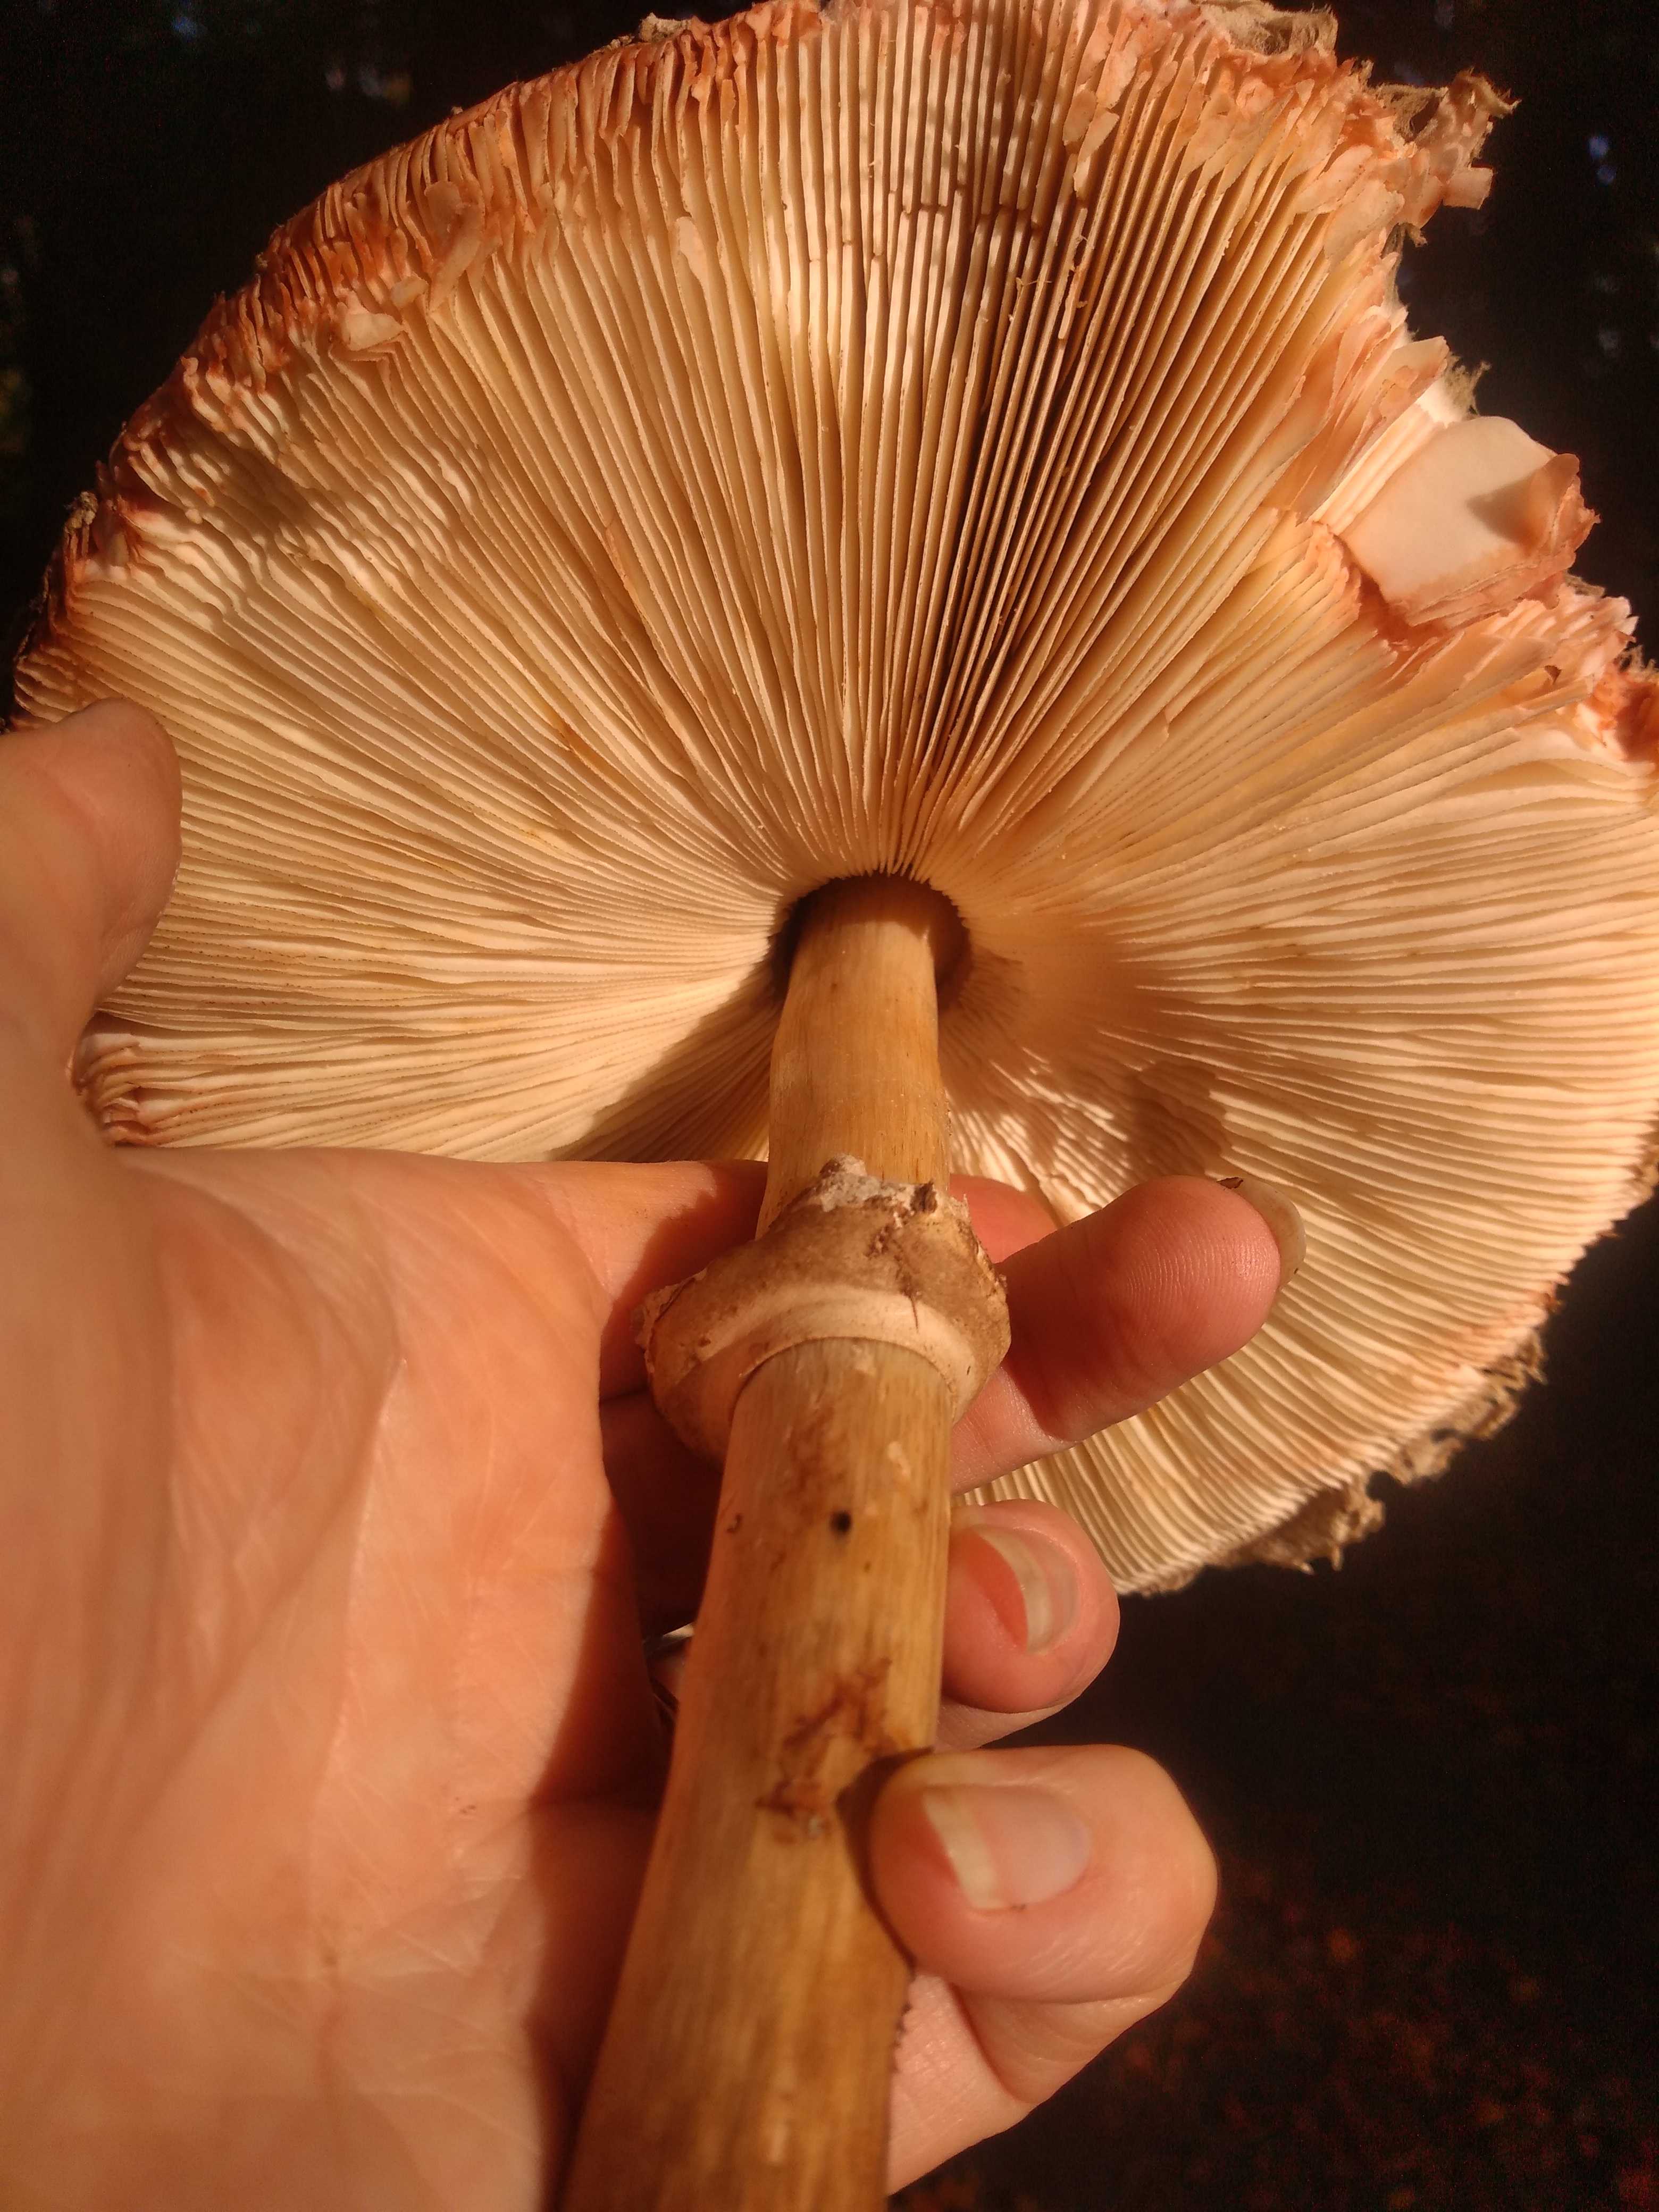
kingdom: Fungi
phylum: Basidiomycota
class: Agaricomycetes
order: Agaricales
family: Agaricaceae
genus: Chlorophyllum
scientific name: Chlorophyllum olivieri
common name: almindelig rabarberhat
